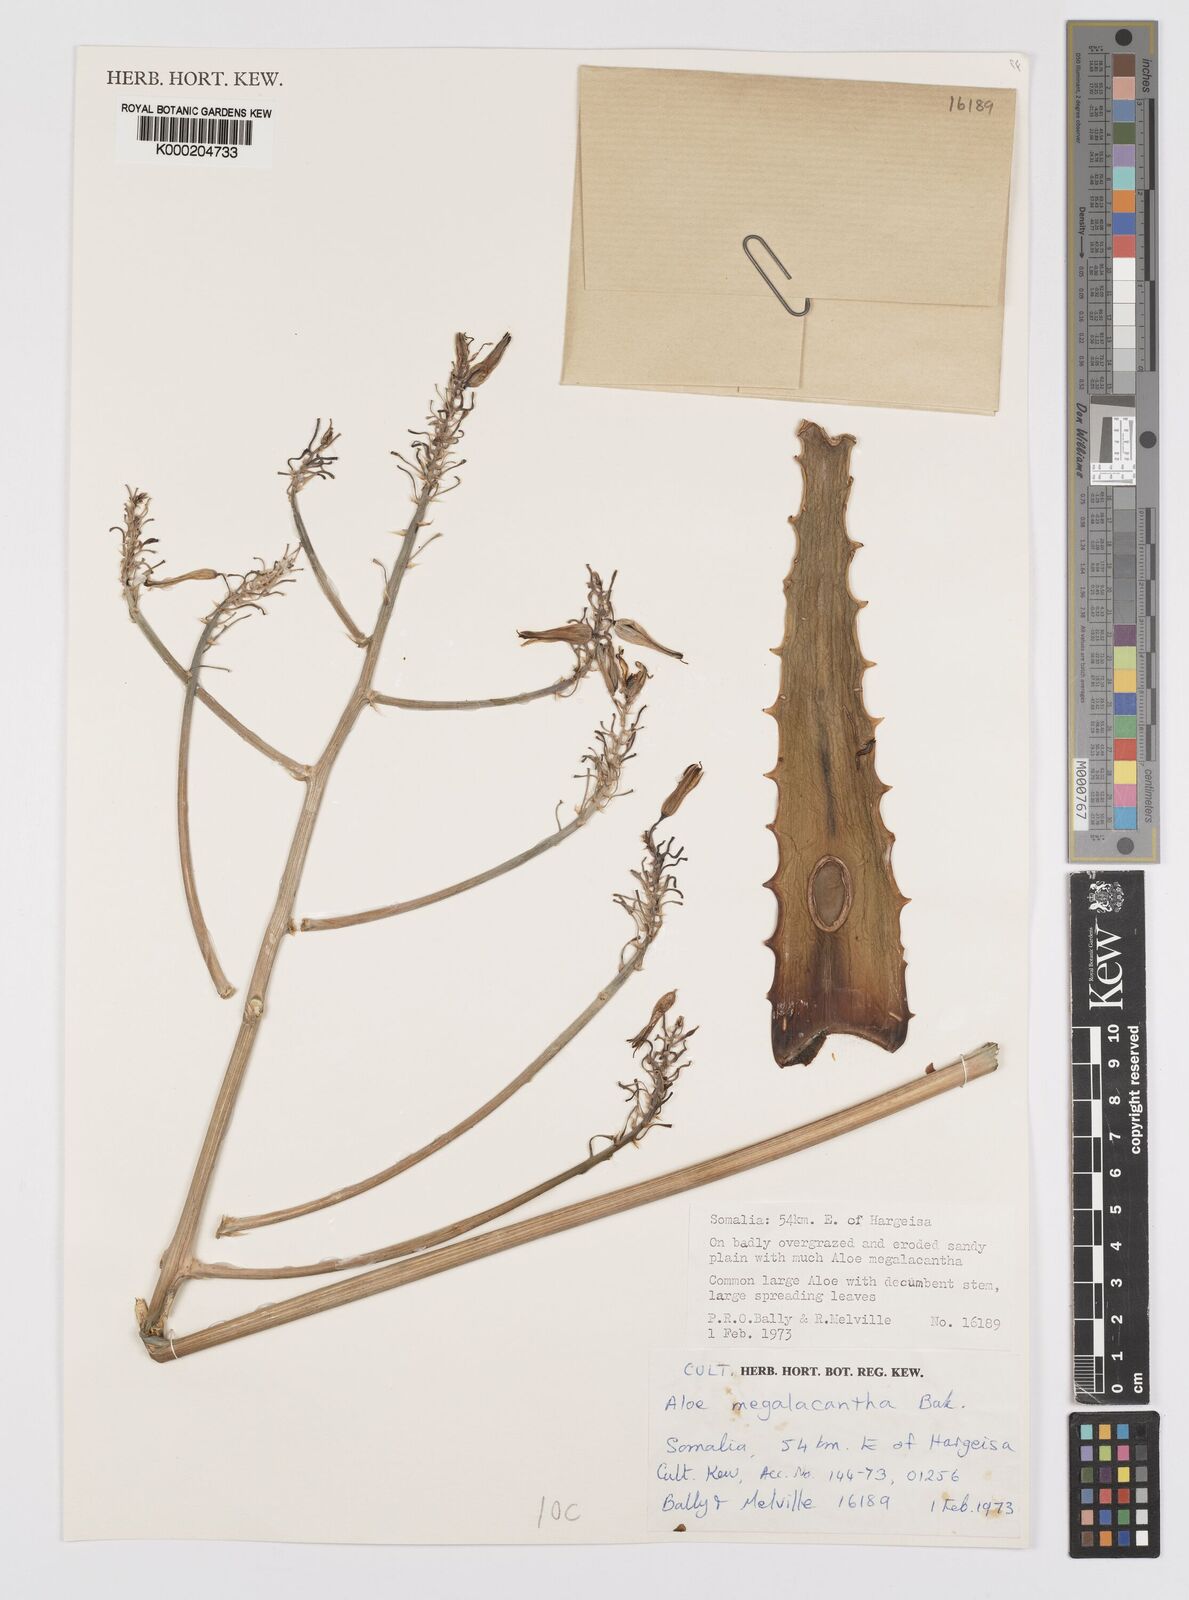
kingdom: Plantae
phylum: Tracheophyta
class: Liliopsida
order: Asparagales
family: Asphodelaceae
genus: Aloe
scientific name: Aloe megalacantha
